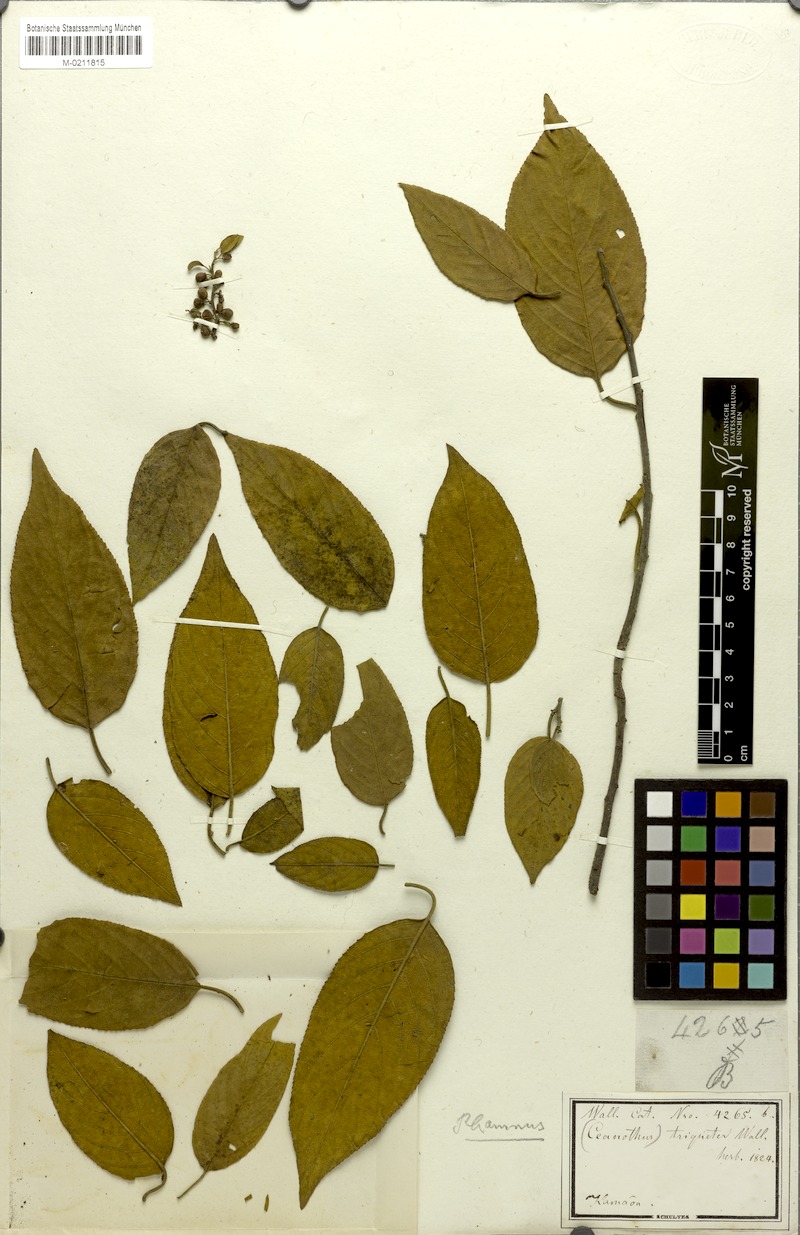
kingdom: Plantae
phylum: Tracheophyta
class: Magnoliopsida
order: Rosales
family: Rhamnaceae
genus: Rhamnus
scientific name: Rhamnus triquetra
